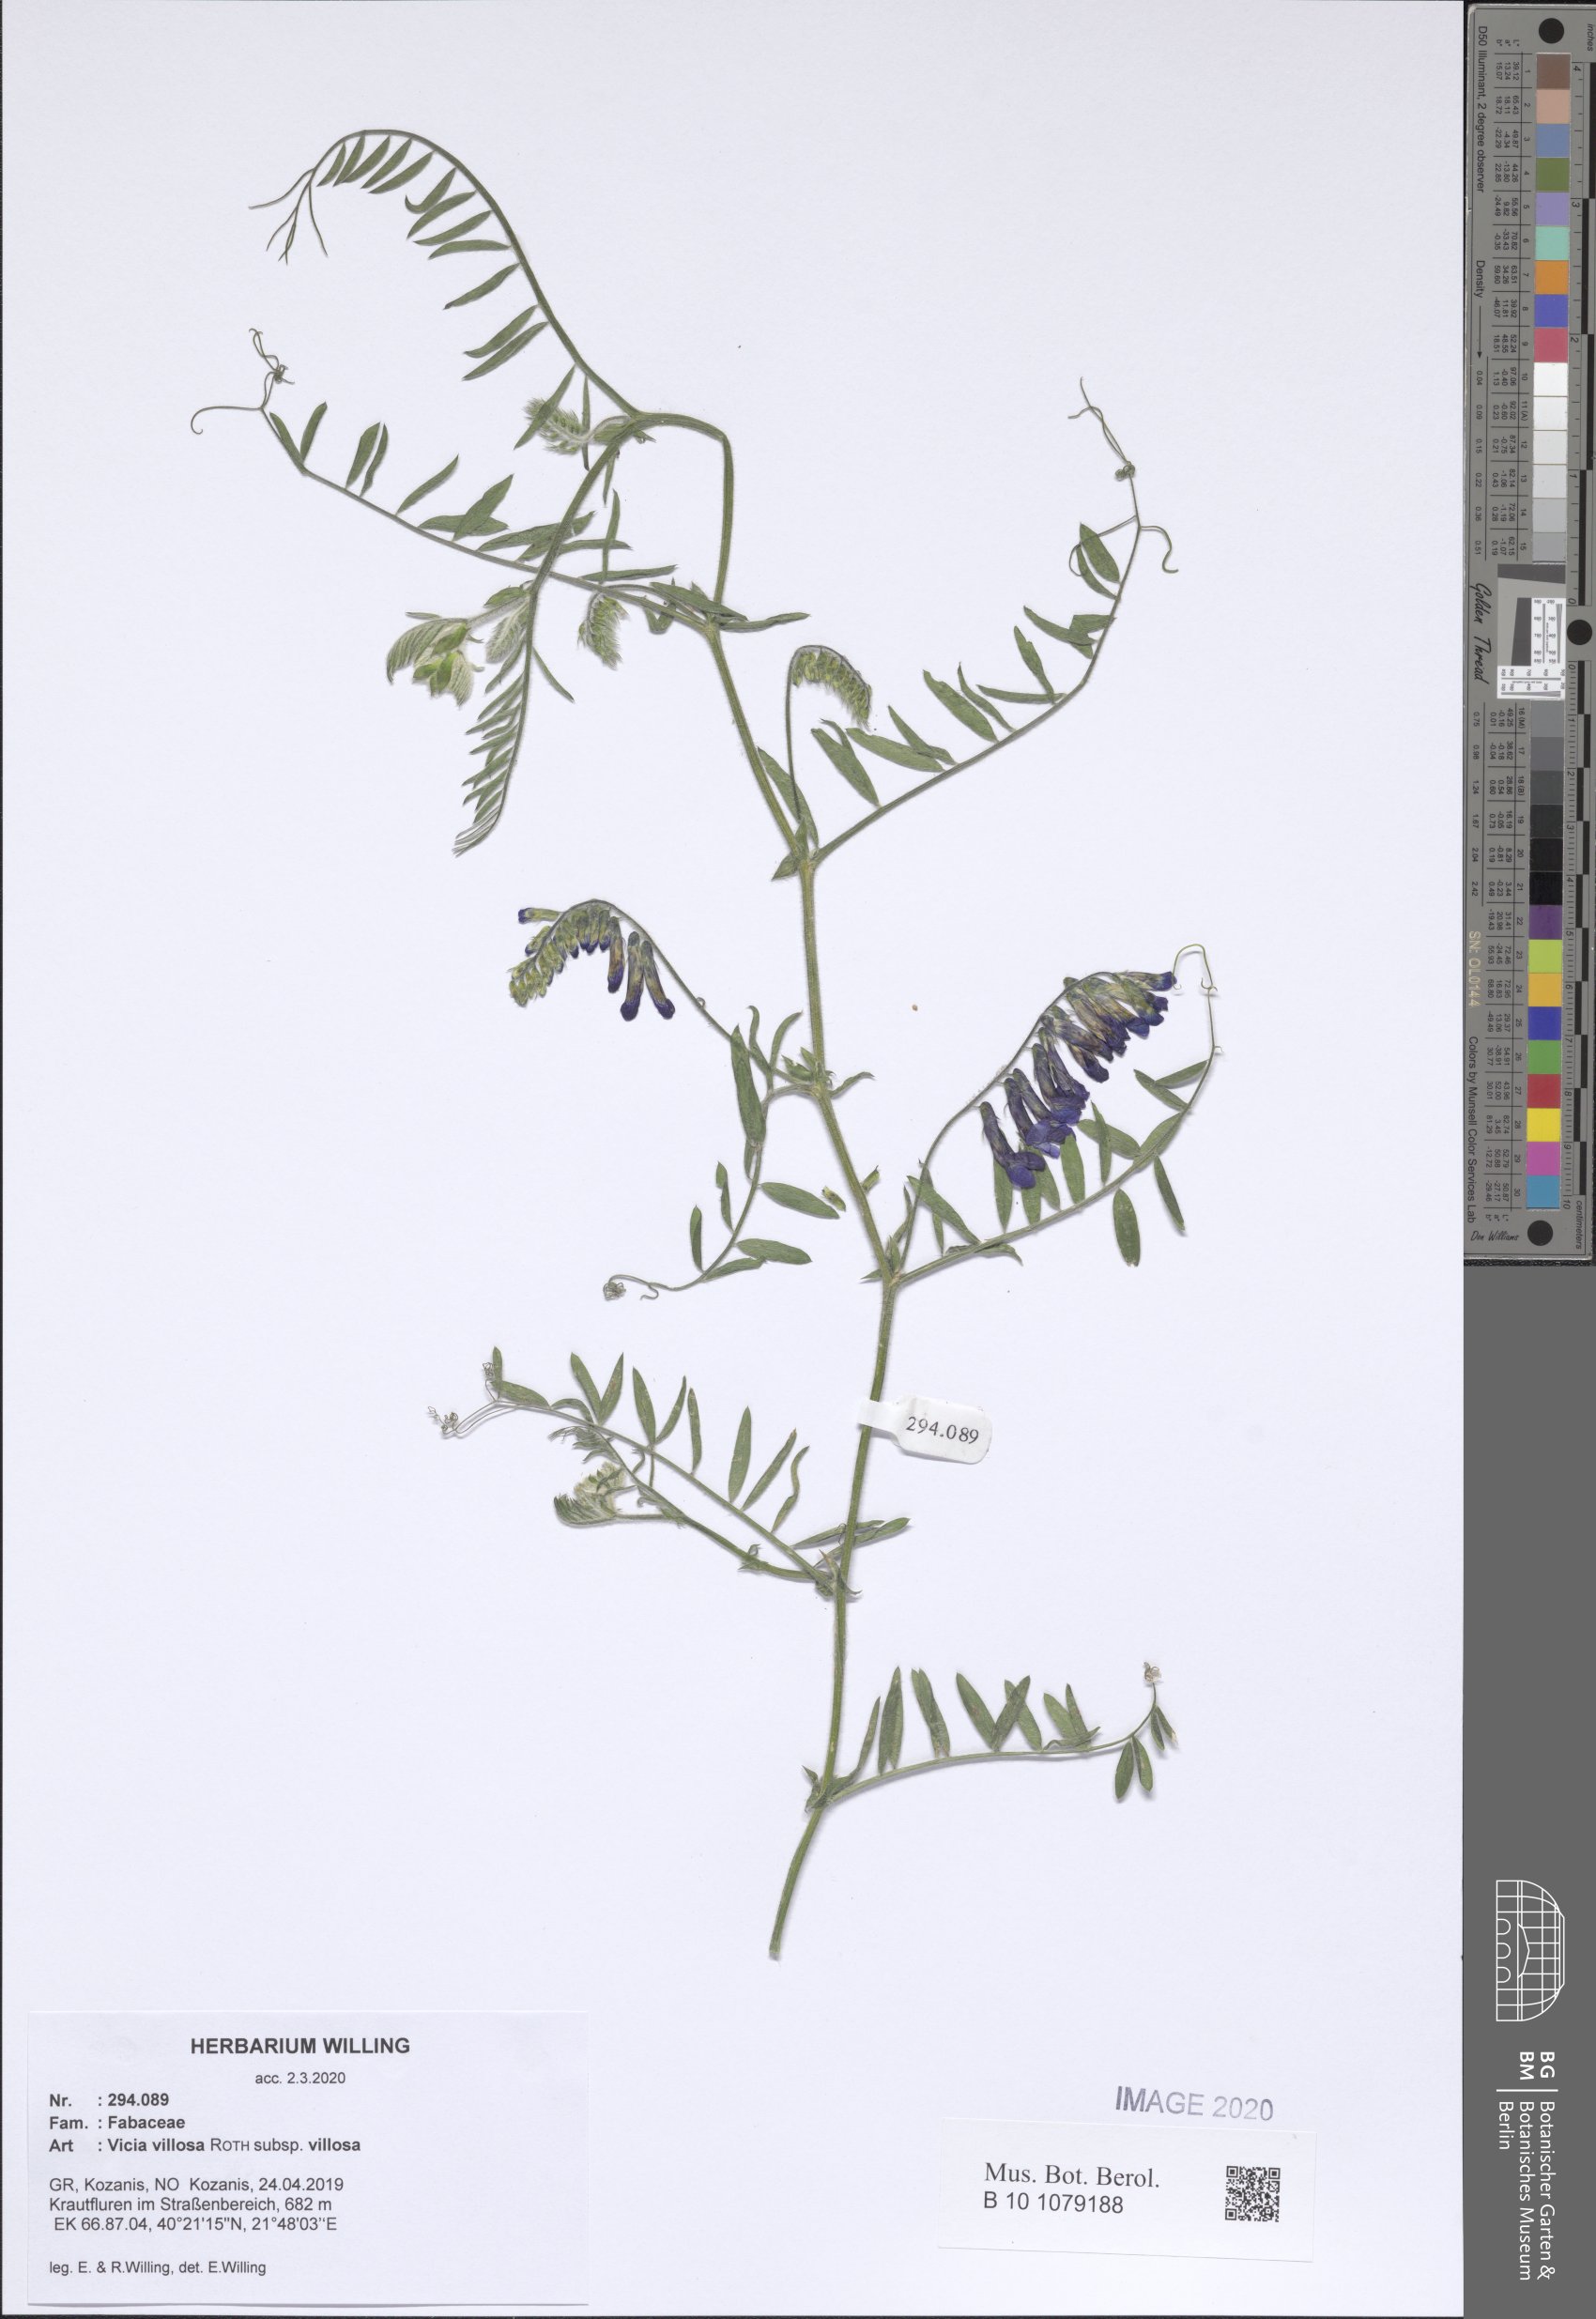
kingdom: Plantae
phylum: Tracheophyta
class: Magnoliopsida
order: Fabales
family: Fabaceae
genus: Vicia
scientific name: Vicia villosa
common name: Fodder vetch
